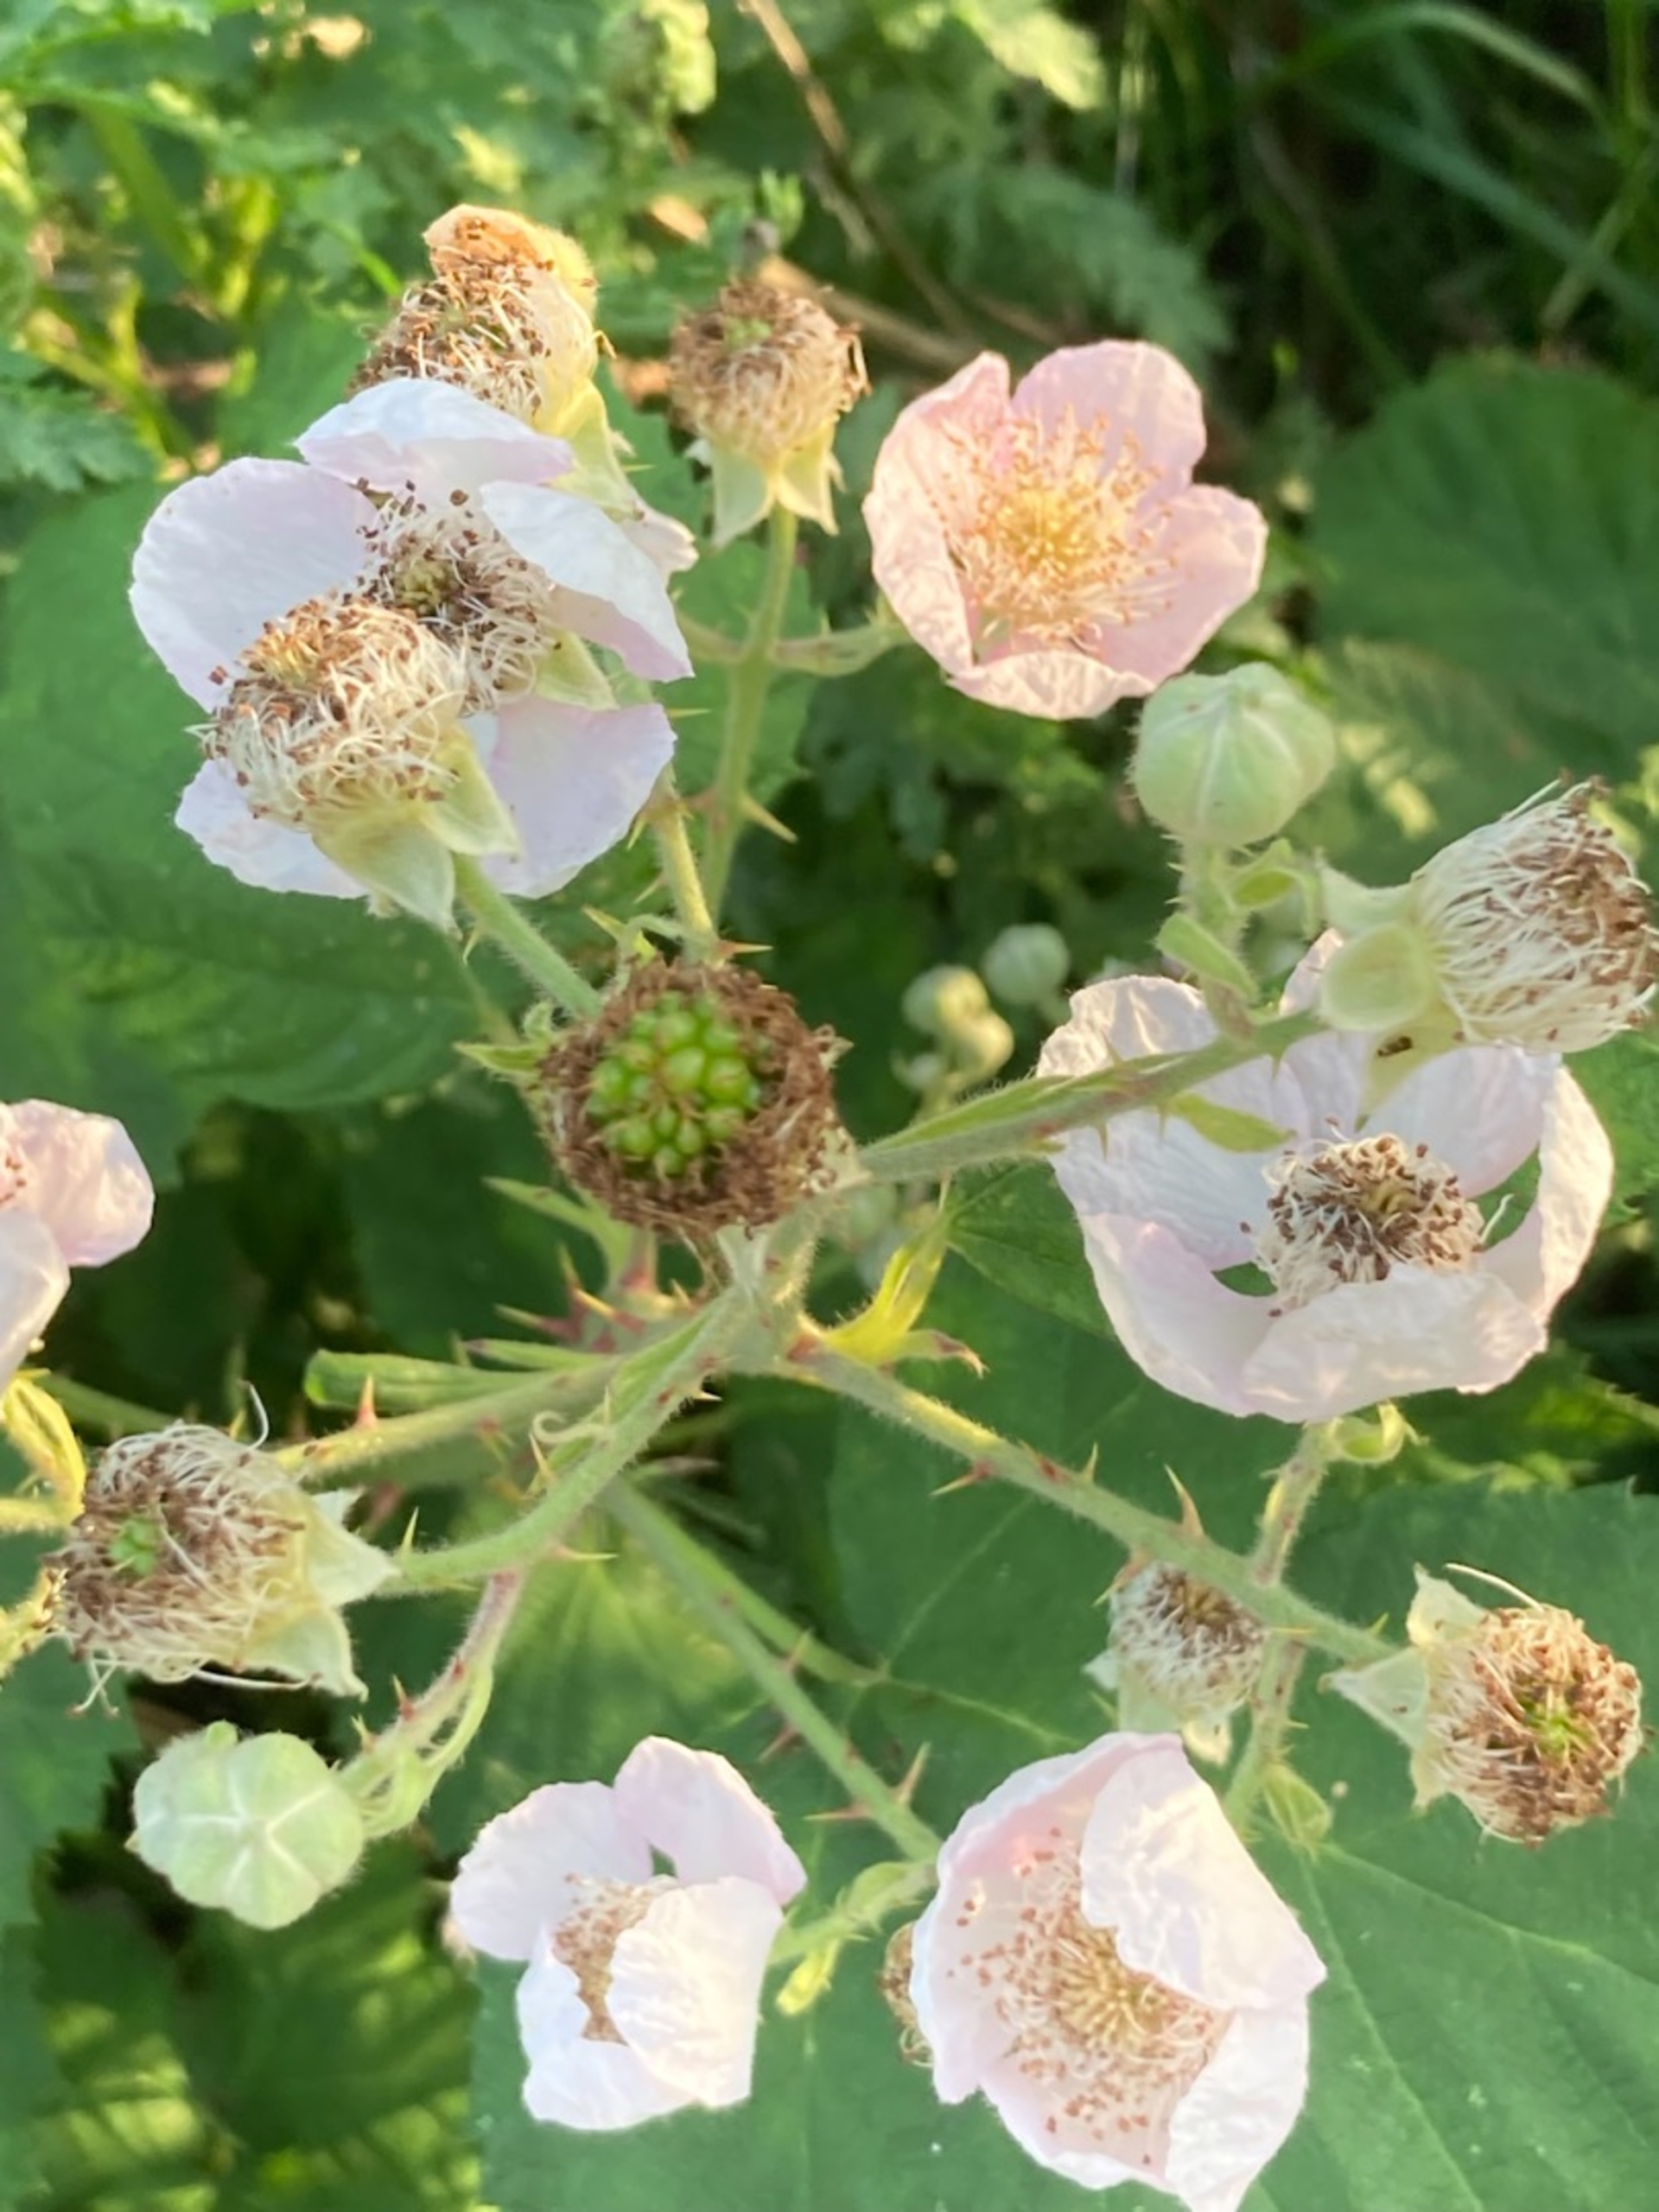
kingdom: Plantae
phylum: Tracheophyta
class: Magnoliopsida
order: Rosales
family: Rosaceae
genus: Rubus
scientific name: Rubus armeniacus
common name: Armensk brombær
